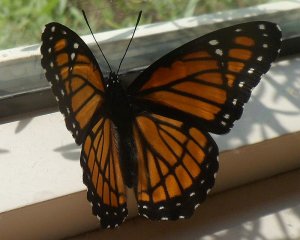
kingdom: Animalia
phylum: Arthropoda
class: Insecta
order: Lepidoptera
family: Nymphalidae
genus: Limenitis
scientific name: Limenitis archippus
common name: Viceroy
